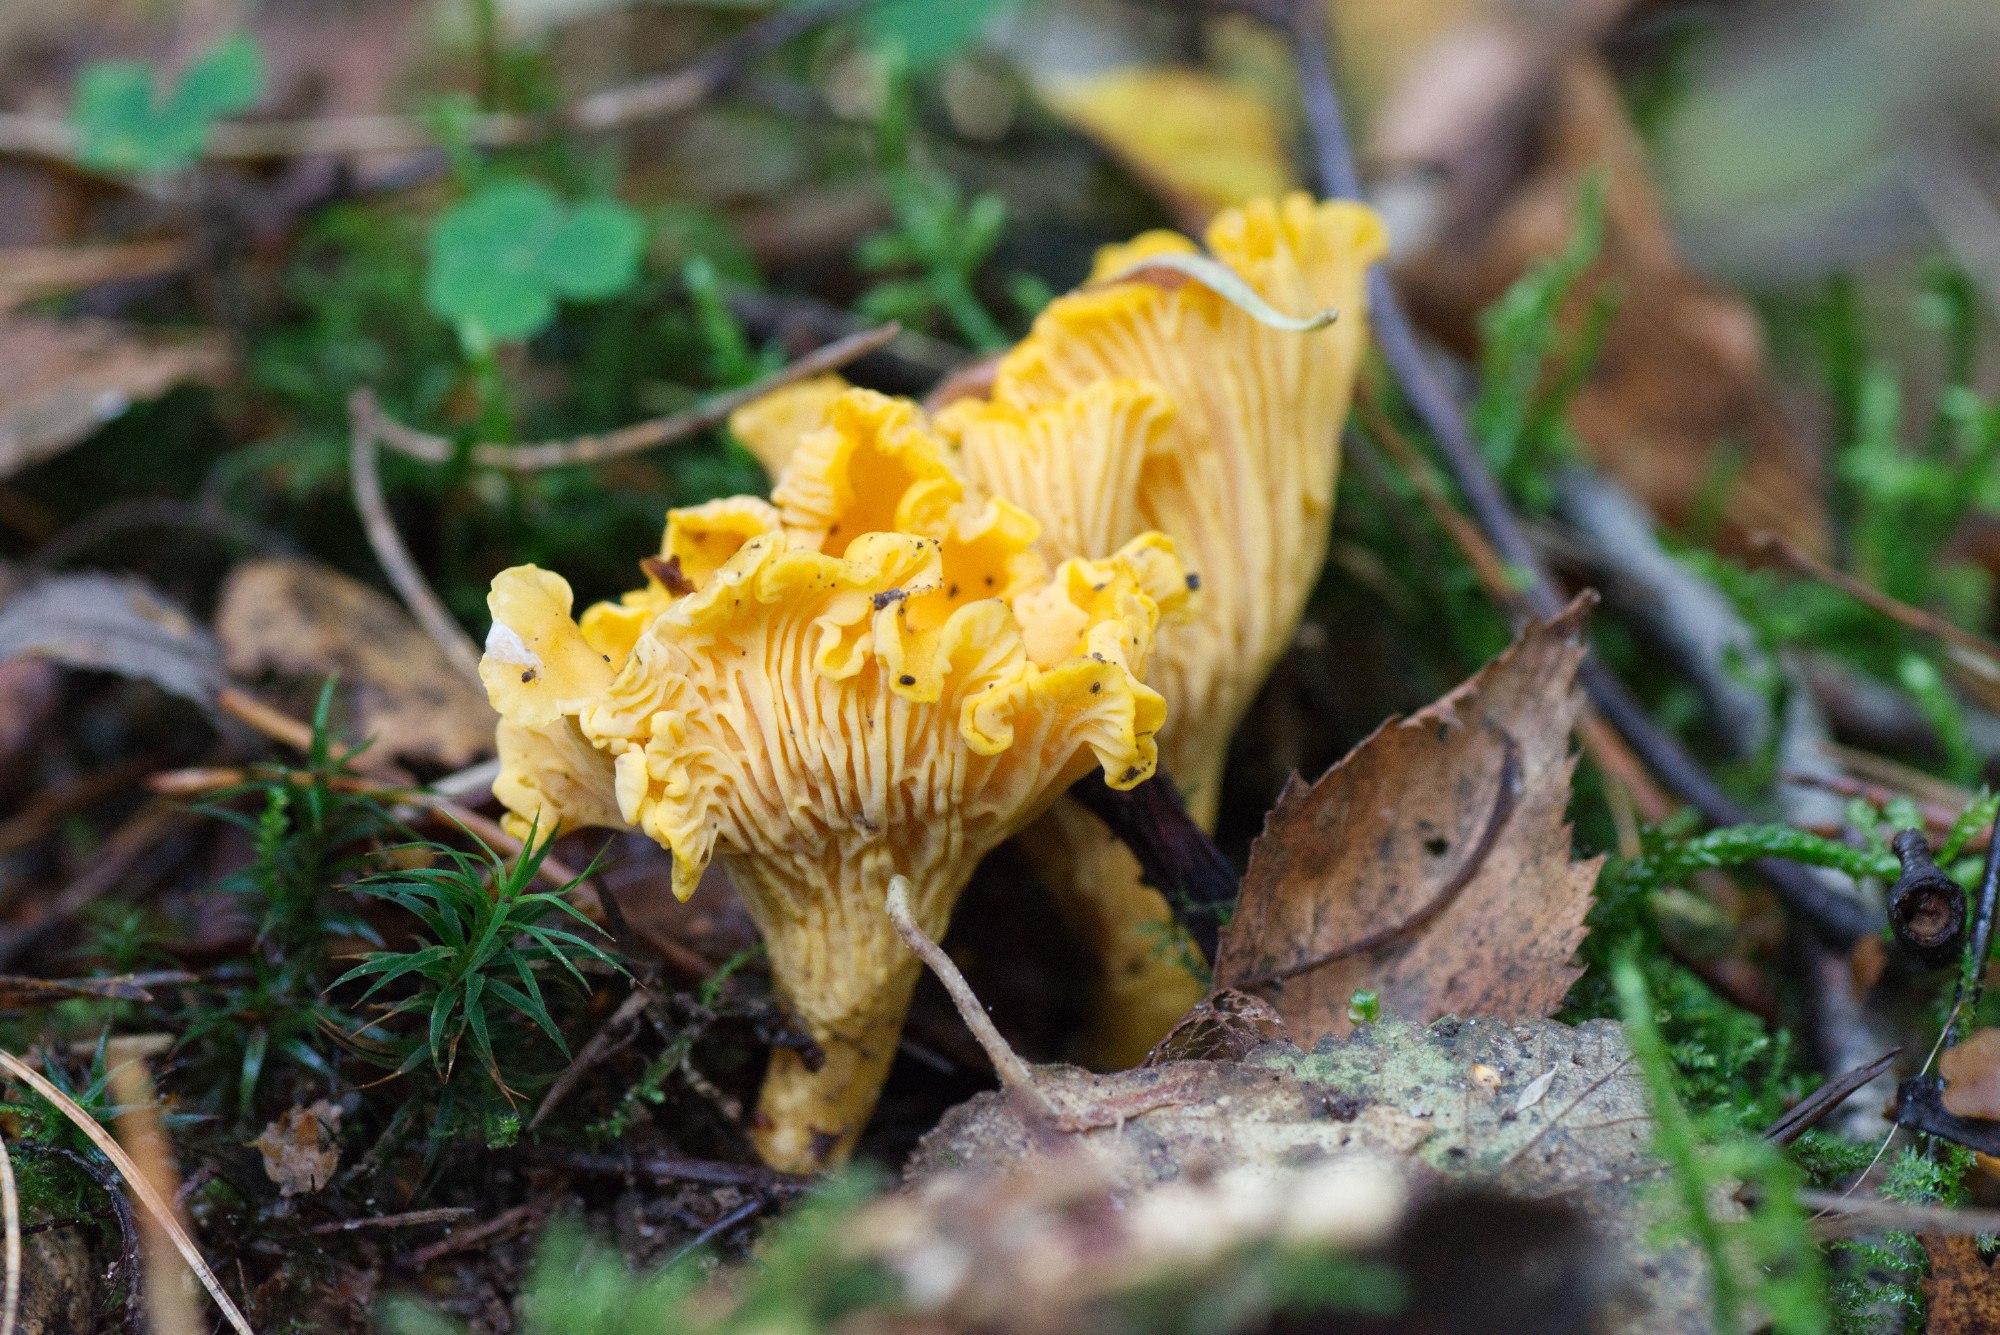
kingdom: Fungi
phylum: Basidiomycota
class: Agaricomycetes
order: Cantharellales
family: Hydnaceae
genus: Cantharellus
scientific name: Cantharellus cibarius
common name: almindelig kantarel
